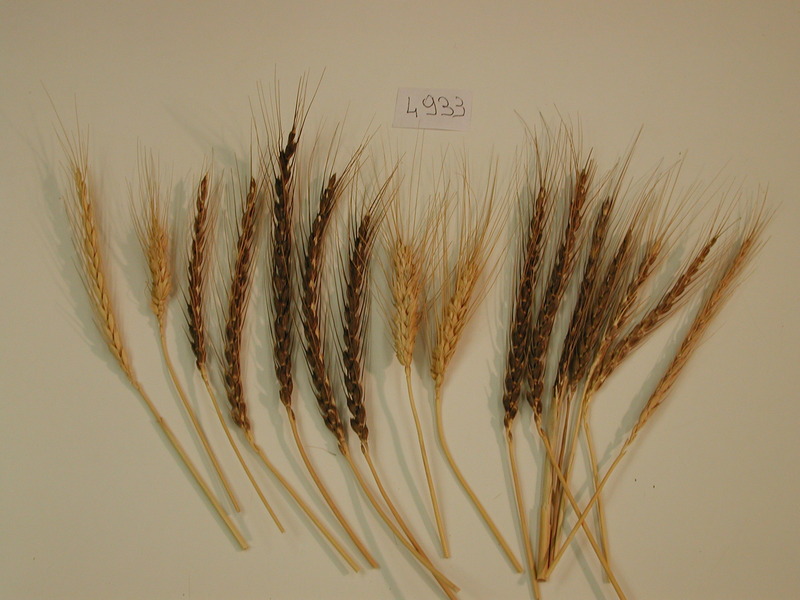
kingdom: Plantae
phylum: Tracheophyta
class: Liliopsida
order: Poales
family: Poaceae
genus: Triticum
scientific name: Triticum aestivum
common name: Wheat
